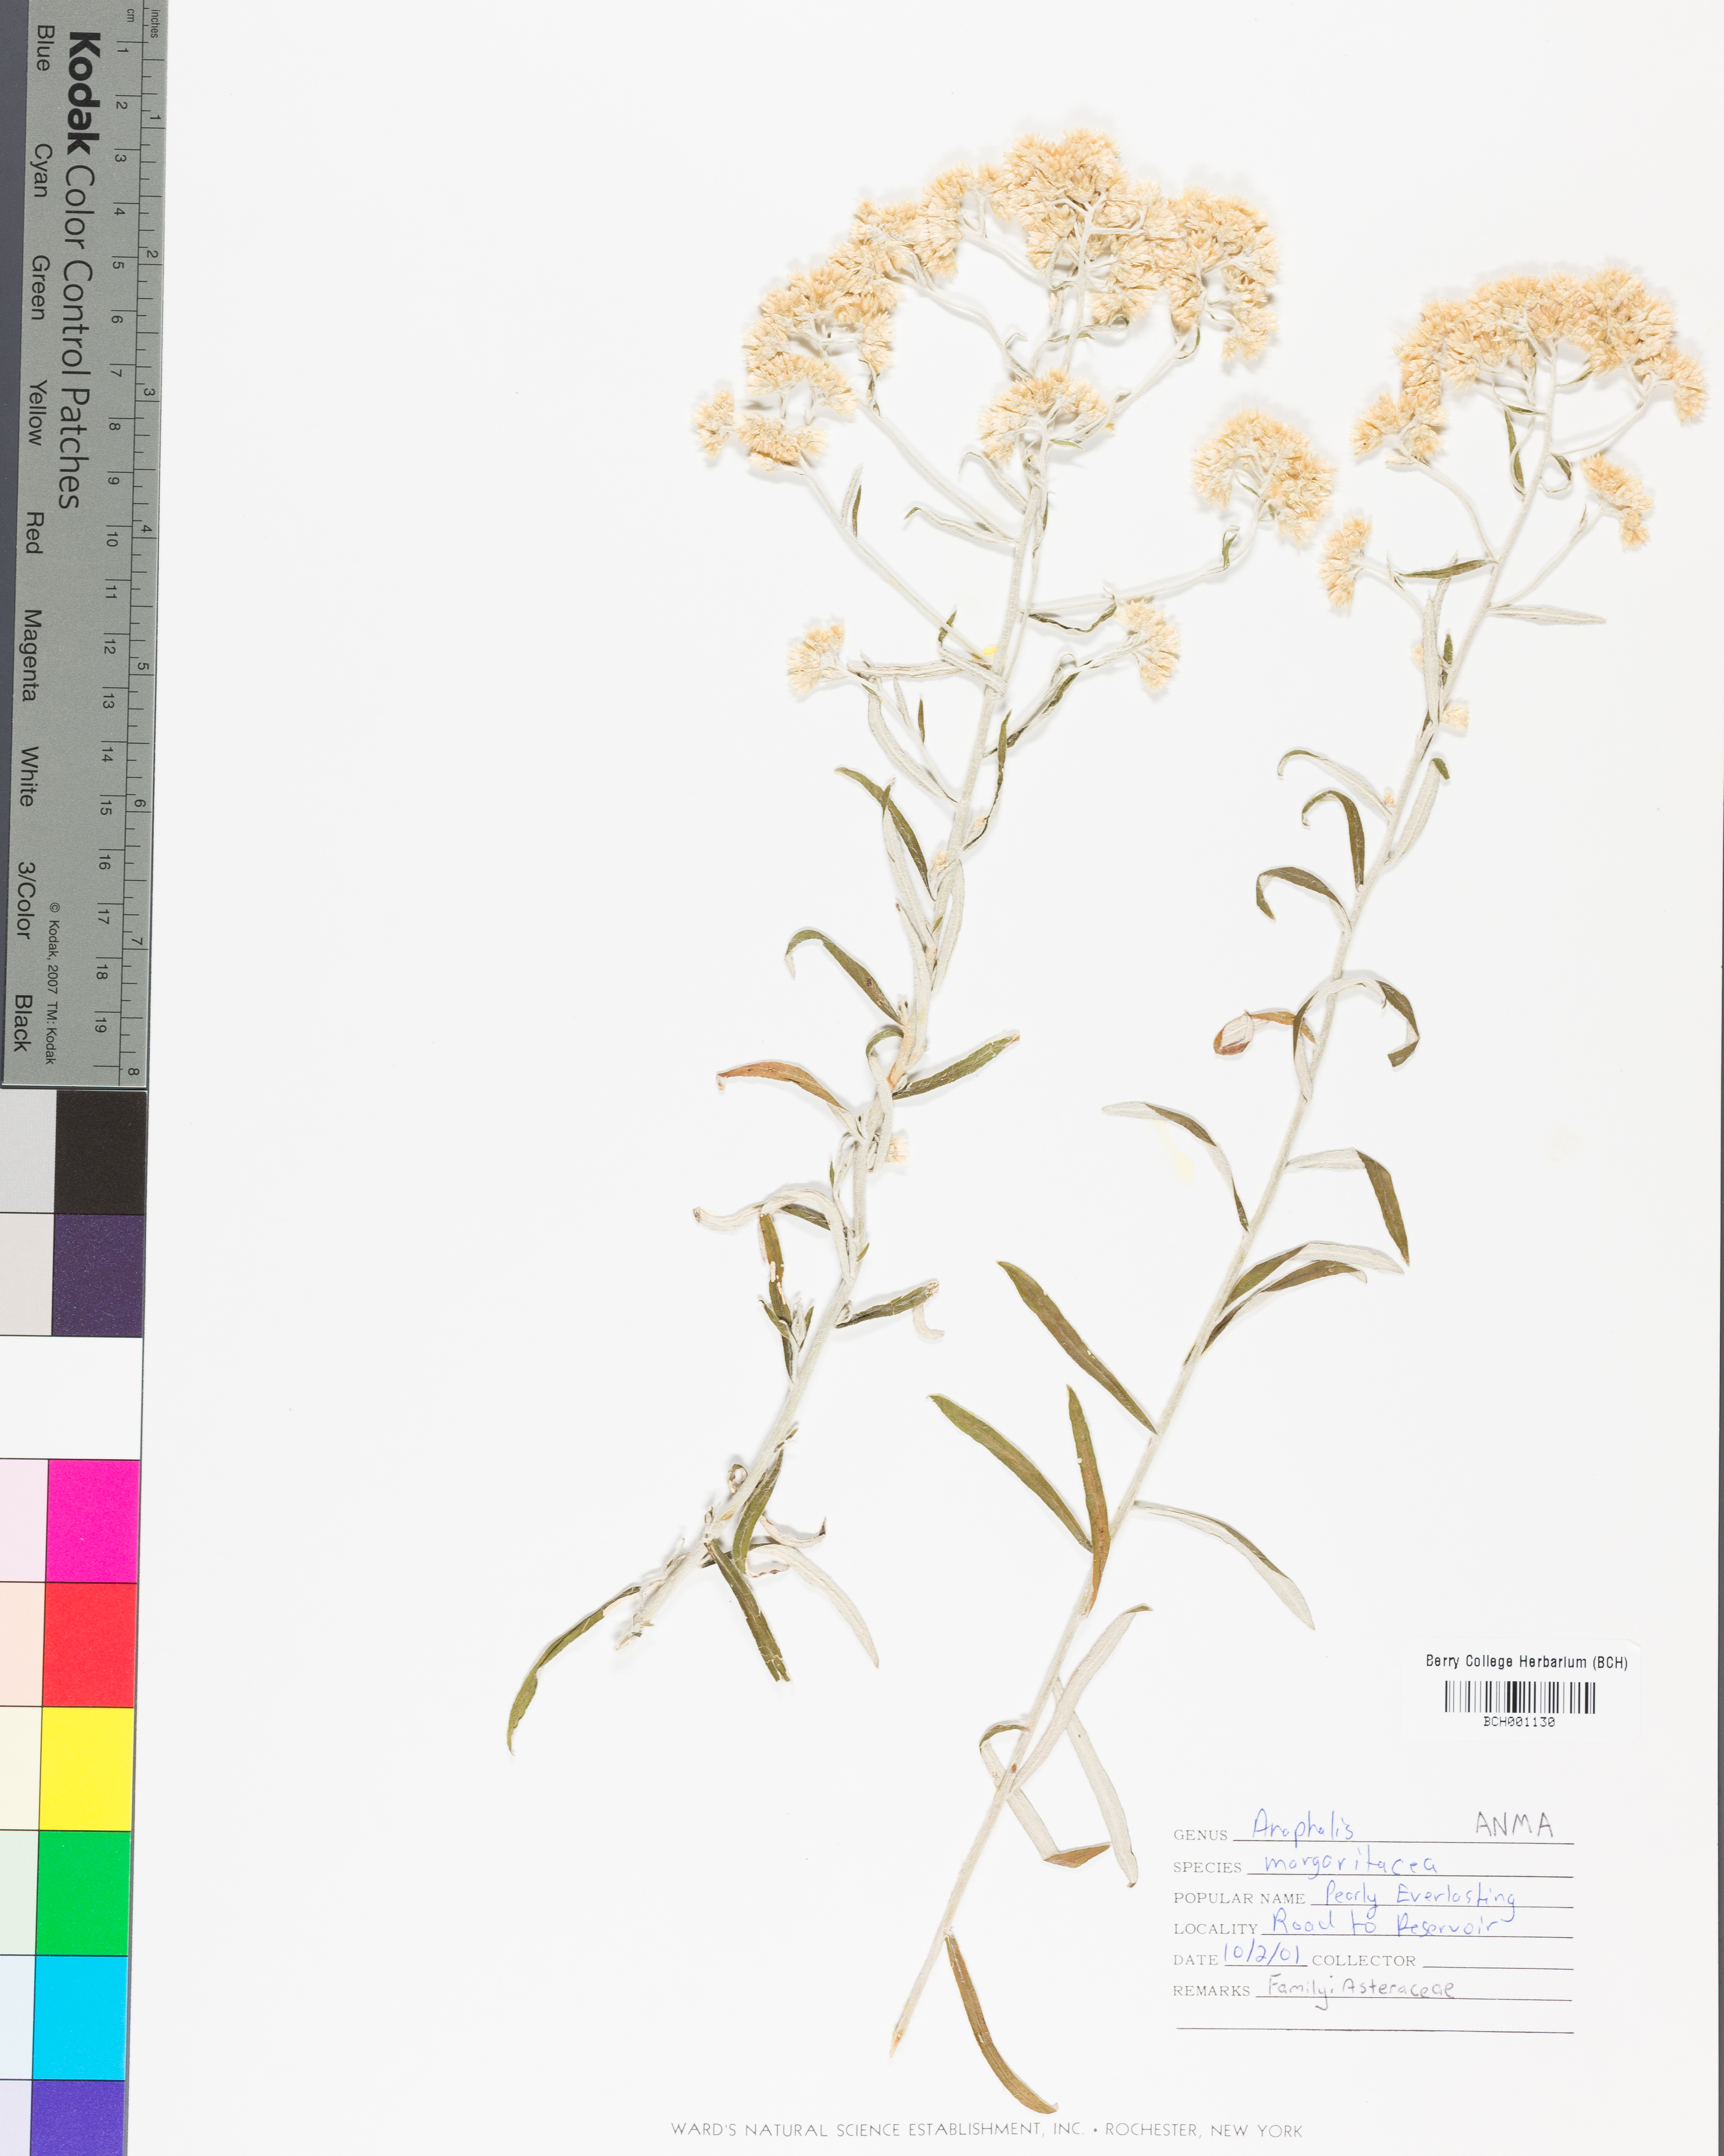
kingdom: Plantae
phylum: Tracheophyta
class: Magnoliopsida
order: Asterales
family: Asteraceae
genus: Anaphalis
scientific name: Anaphalis margaritacea
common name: Pearly everlasting
